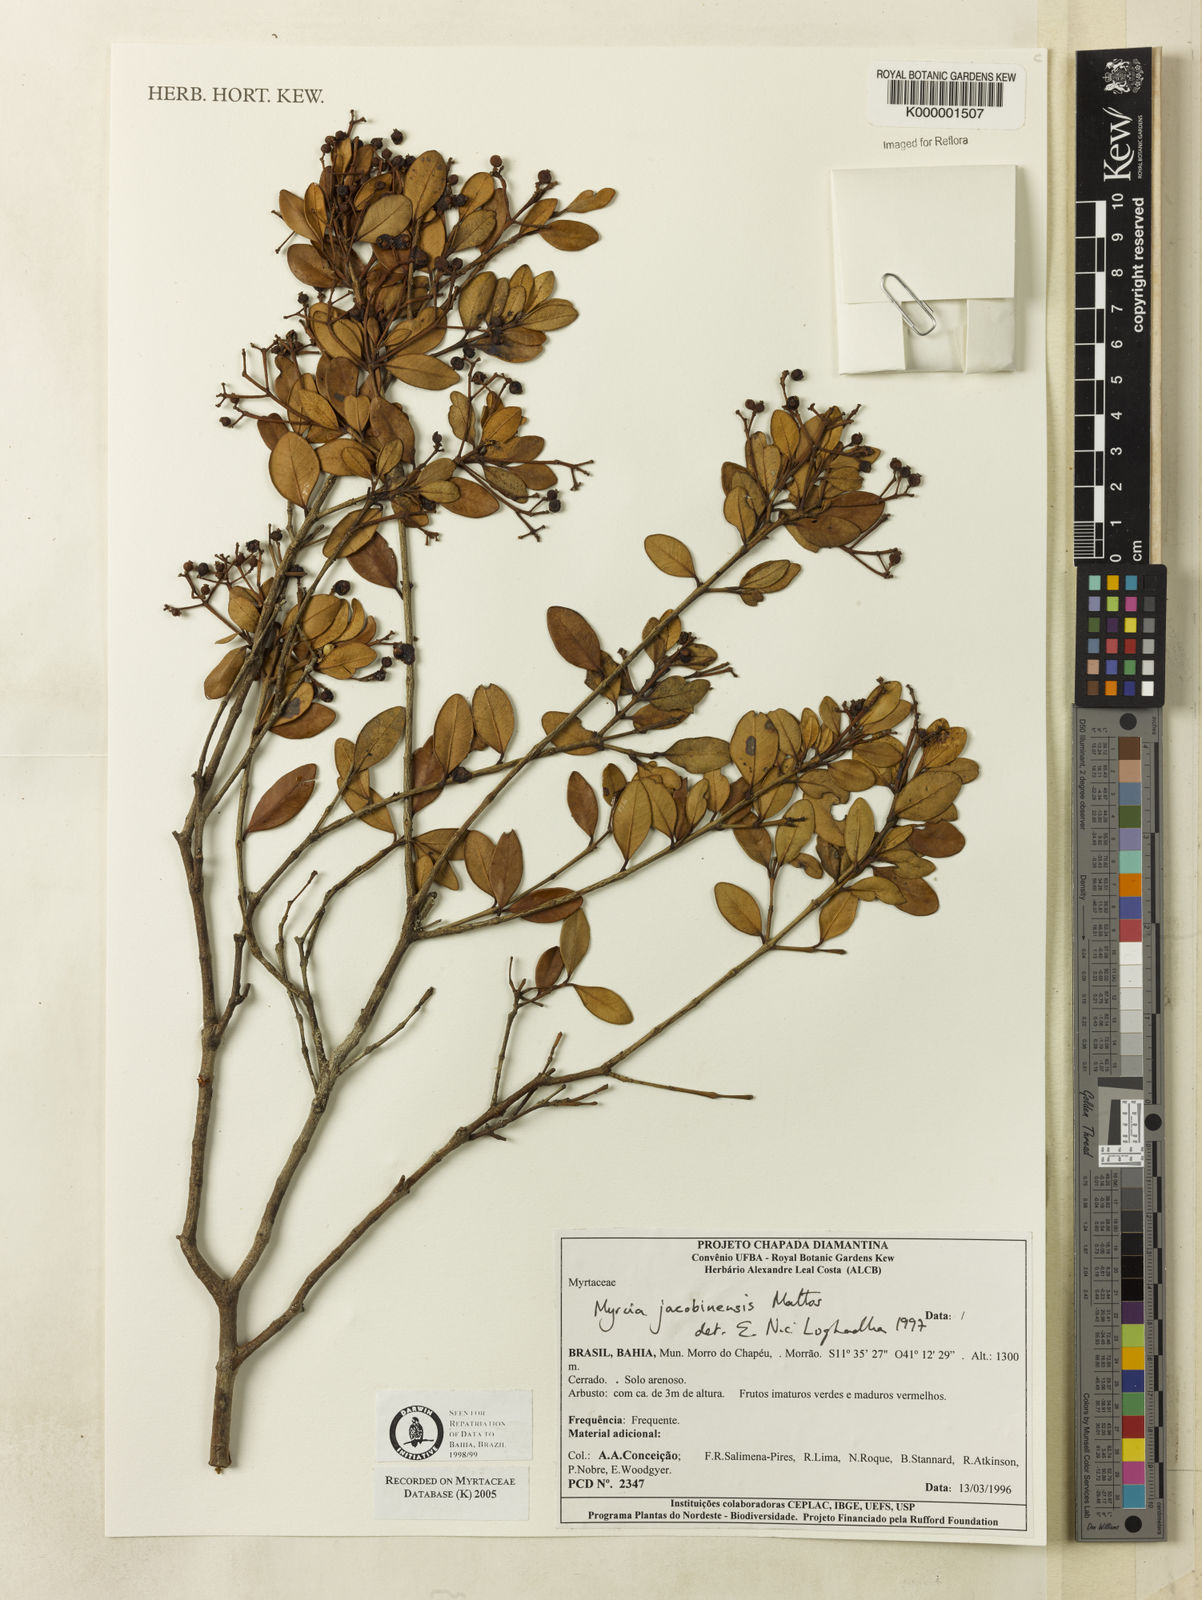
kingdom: Plantae
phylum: Tracheophyta
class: Magnoliopsida
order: Myrtales
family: Myrtaceae
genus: Myrcia
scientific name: Myrcia jacobinensis
